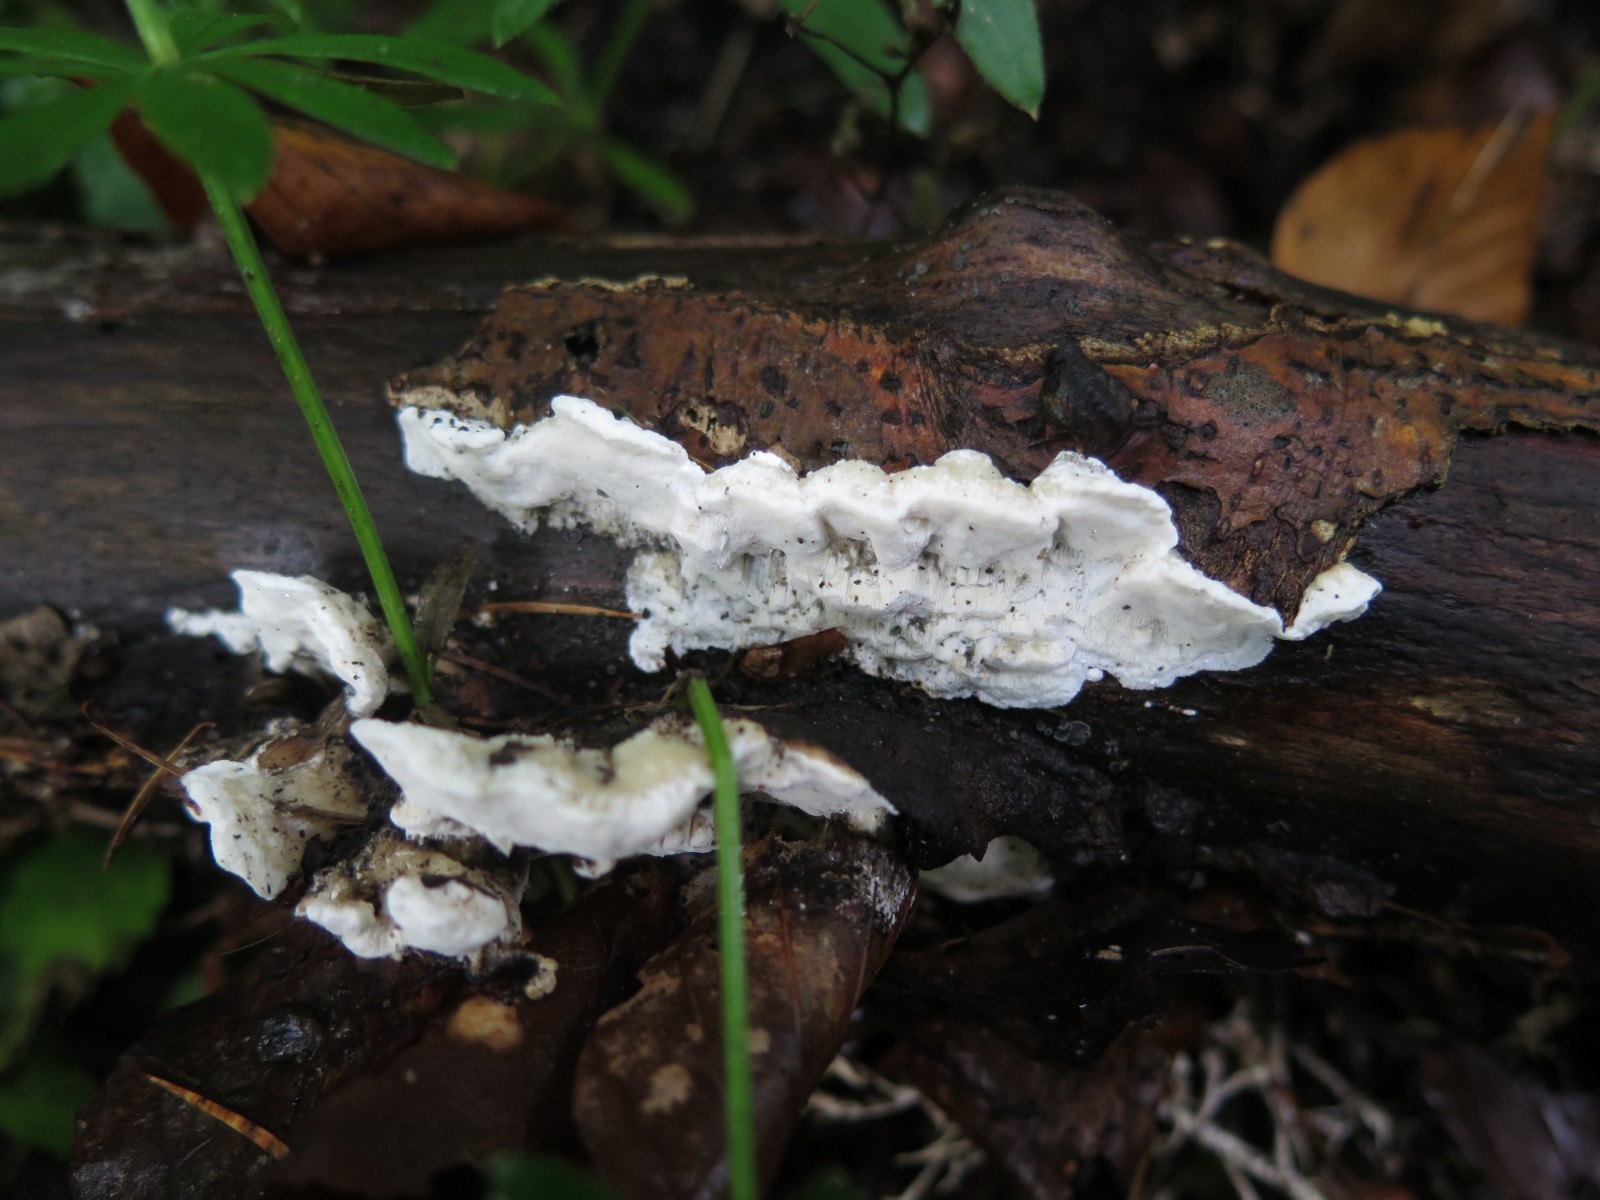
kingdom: Fungi
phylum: Basidiomycota
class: Agaricomycetes
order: Polyporales
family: Incrustoporiaceae
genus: Skeletocutis
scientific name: Skeletocutis nemoralis
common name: stor krystalporesvamp
